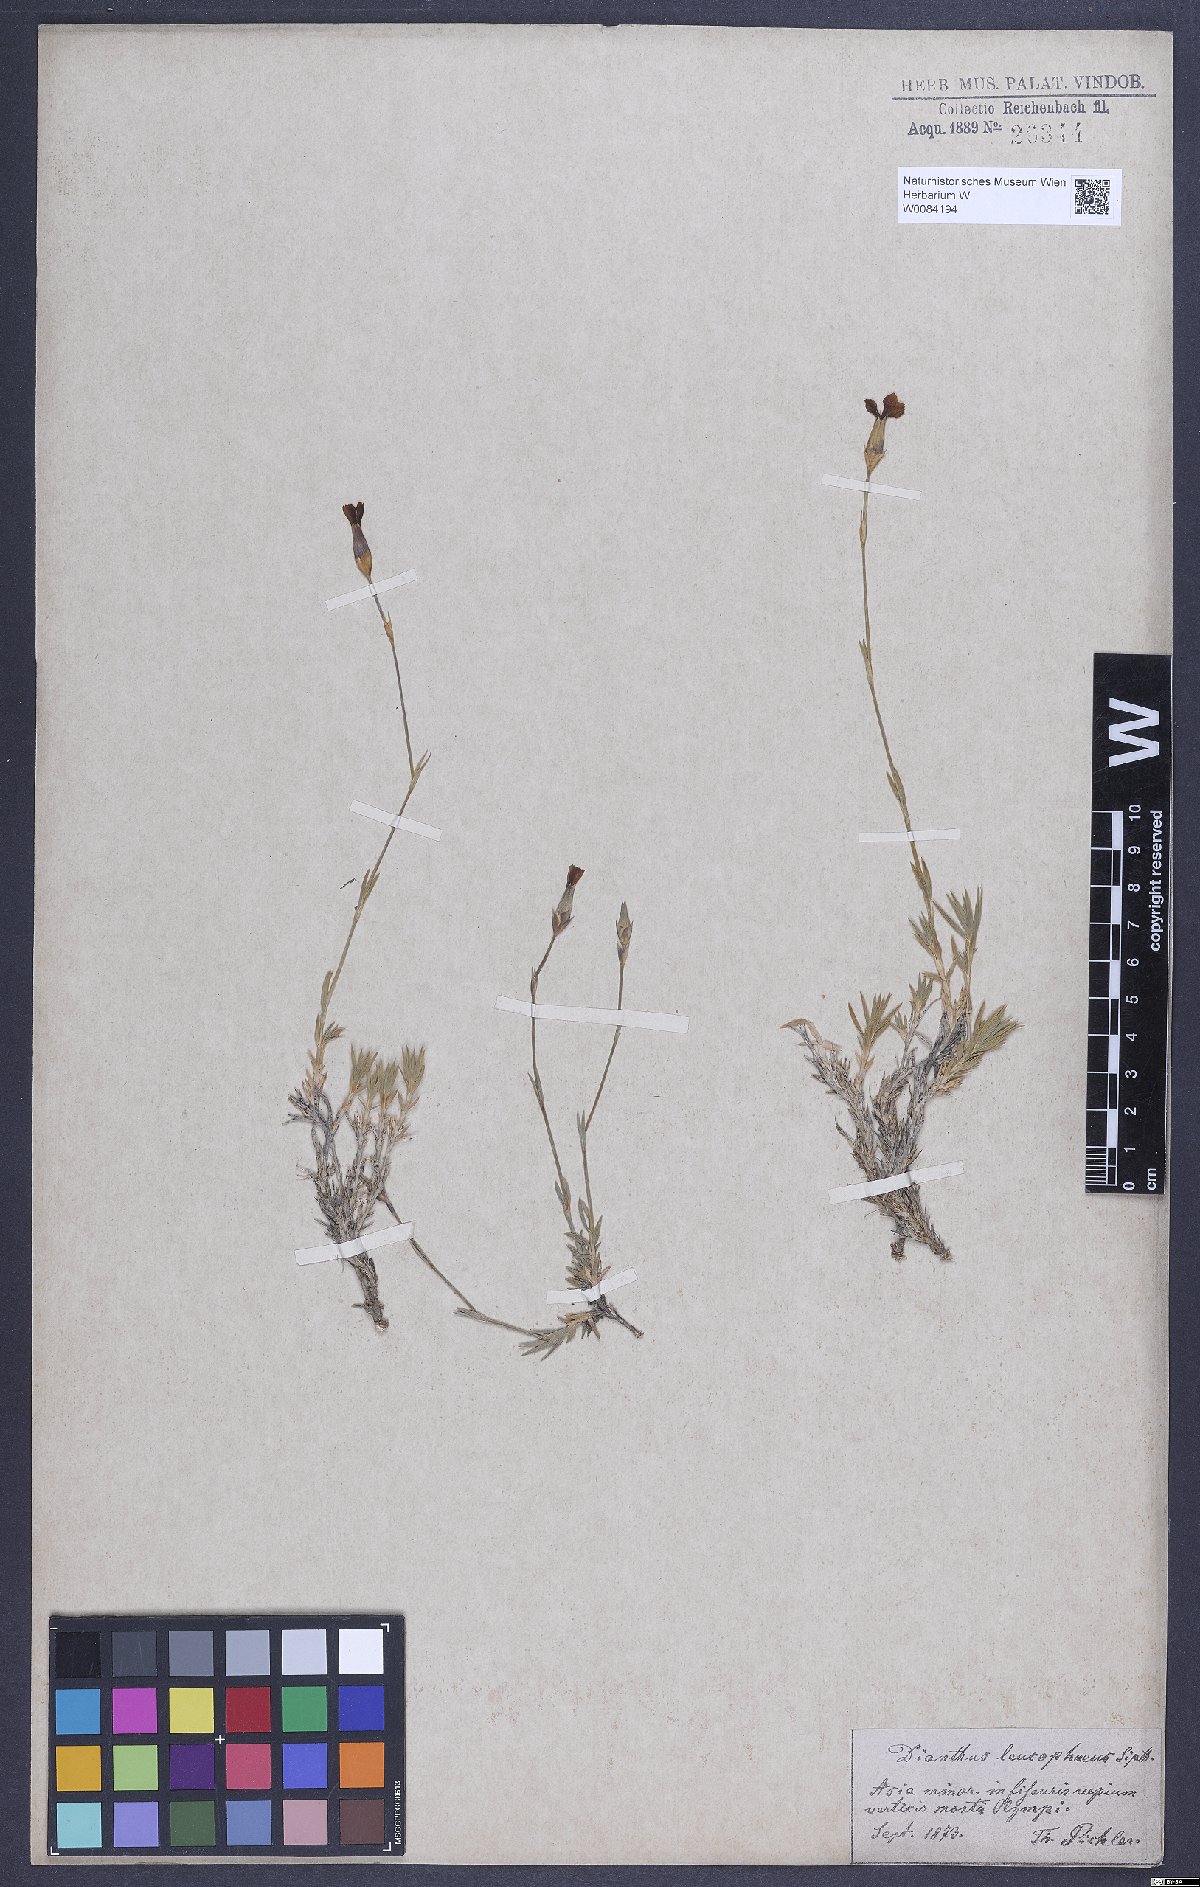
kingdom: Plantae
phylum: Tracheophyta
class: Magnoliopsida
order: Caryophyllales
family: Caryophyllaceae
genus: Dianthus
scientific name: Dianthus leucophaeus
